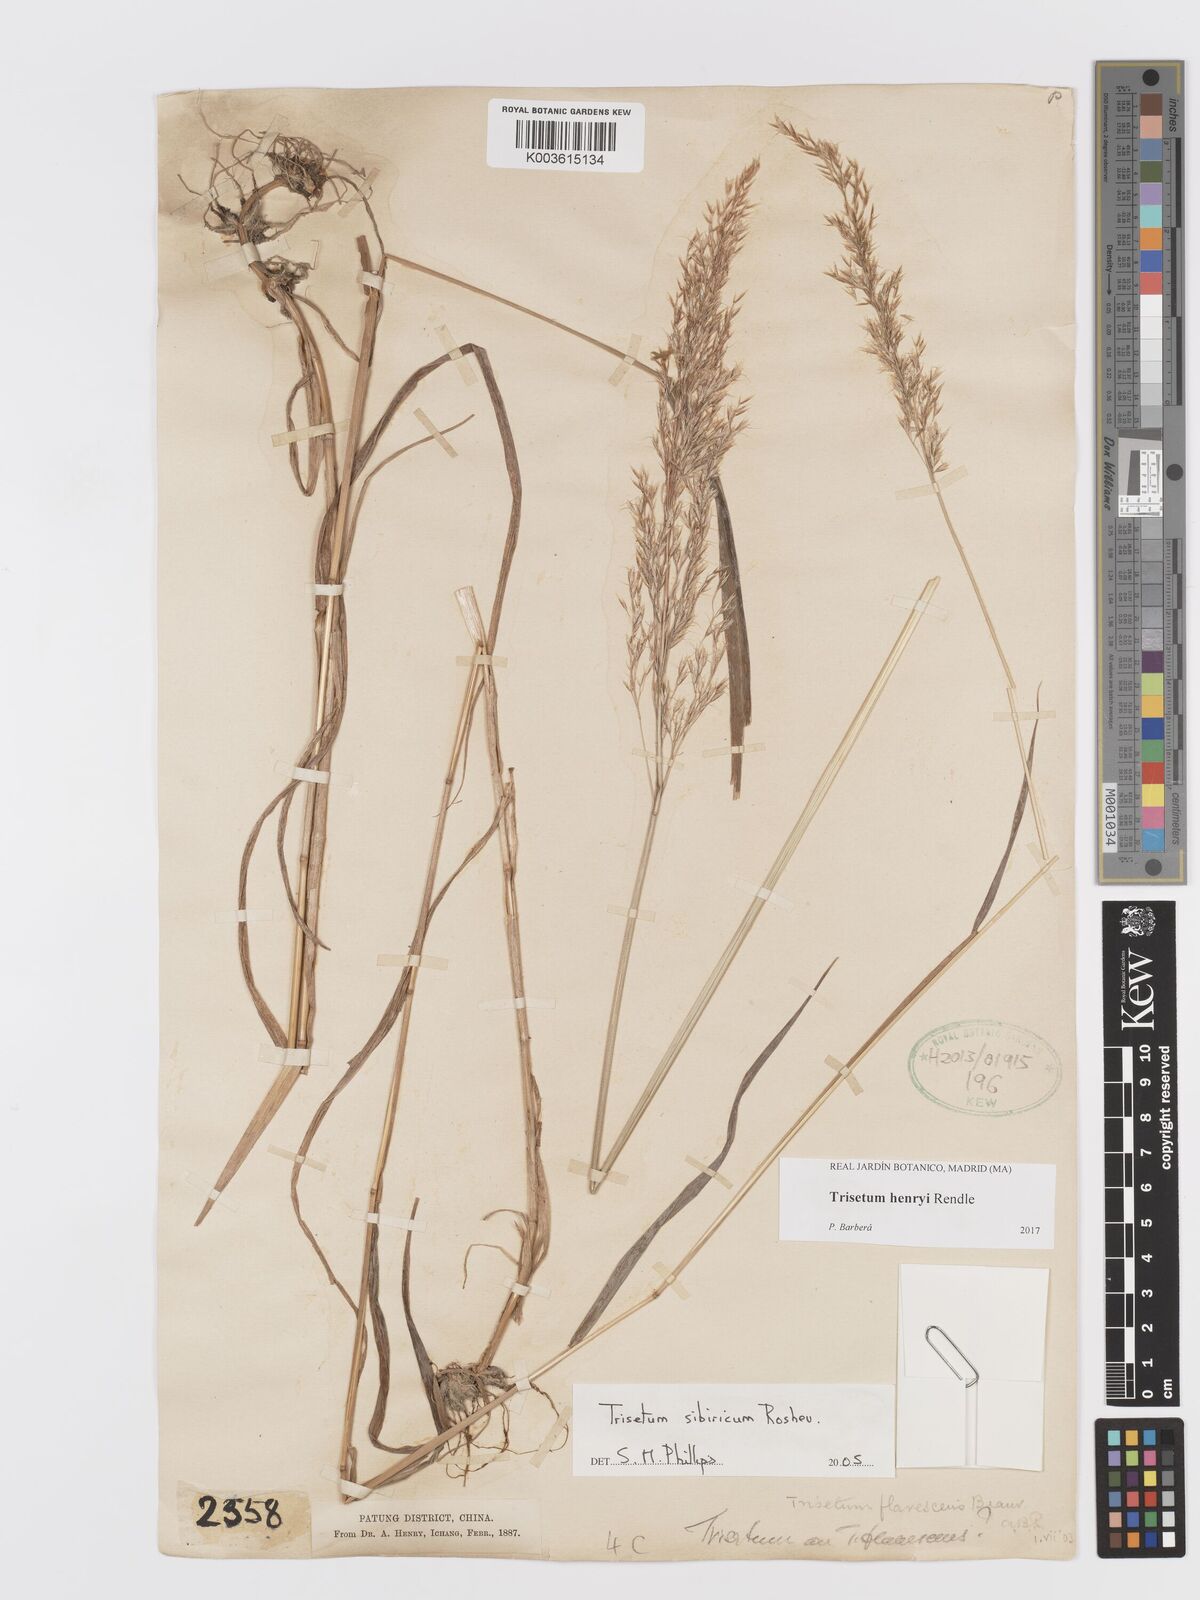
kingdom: Plantae
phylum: Tracheophyta
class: Liliopsida
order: Poales
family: Poaceae
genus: Sibirotrisetum
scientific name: Sibirotrisetum henryi
